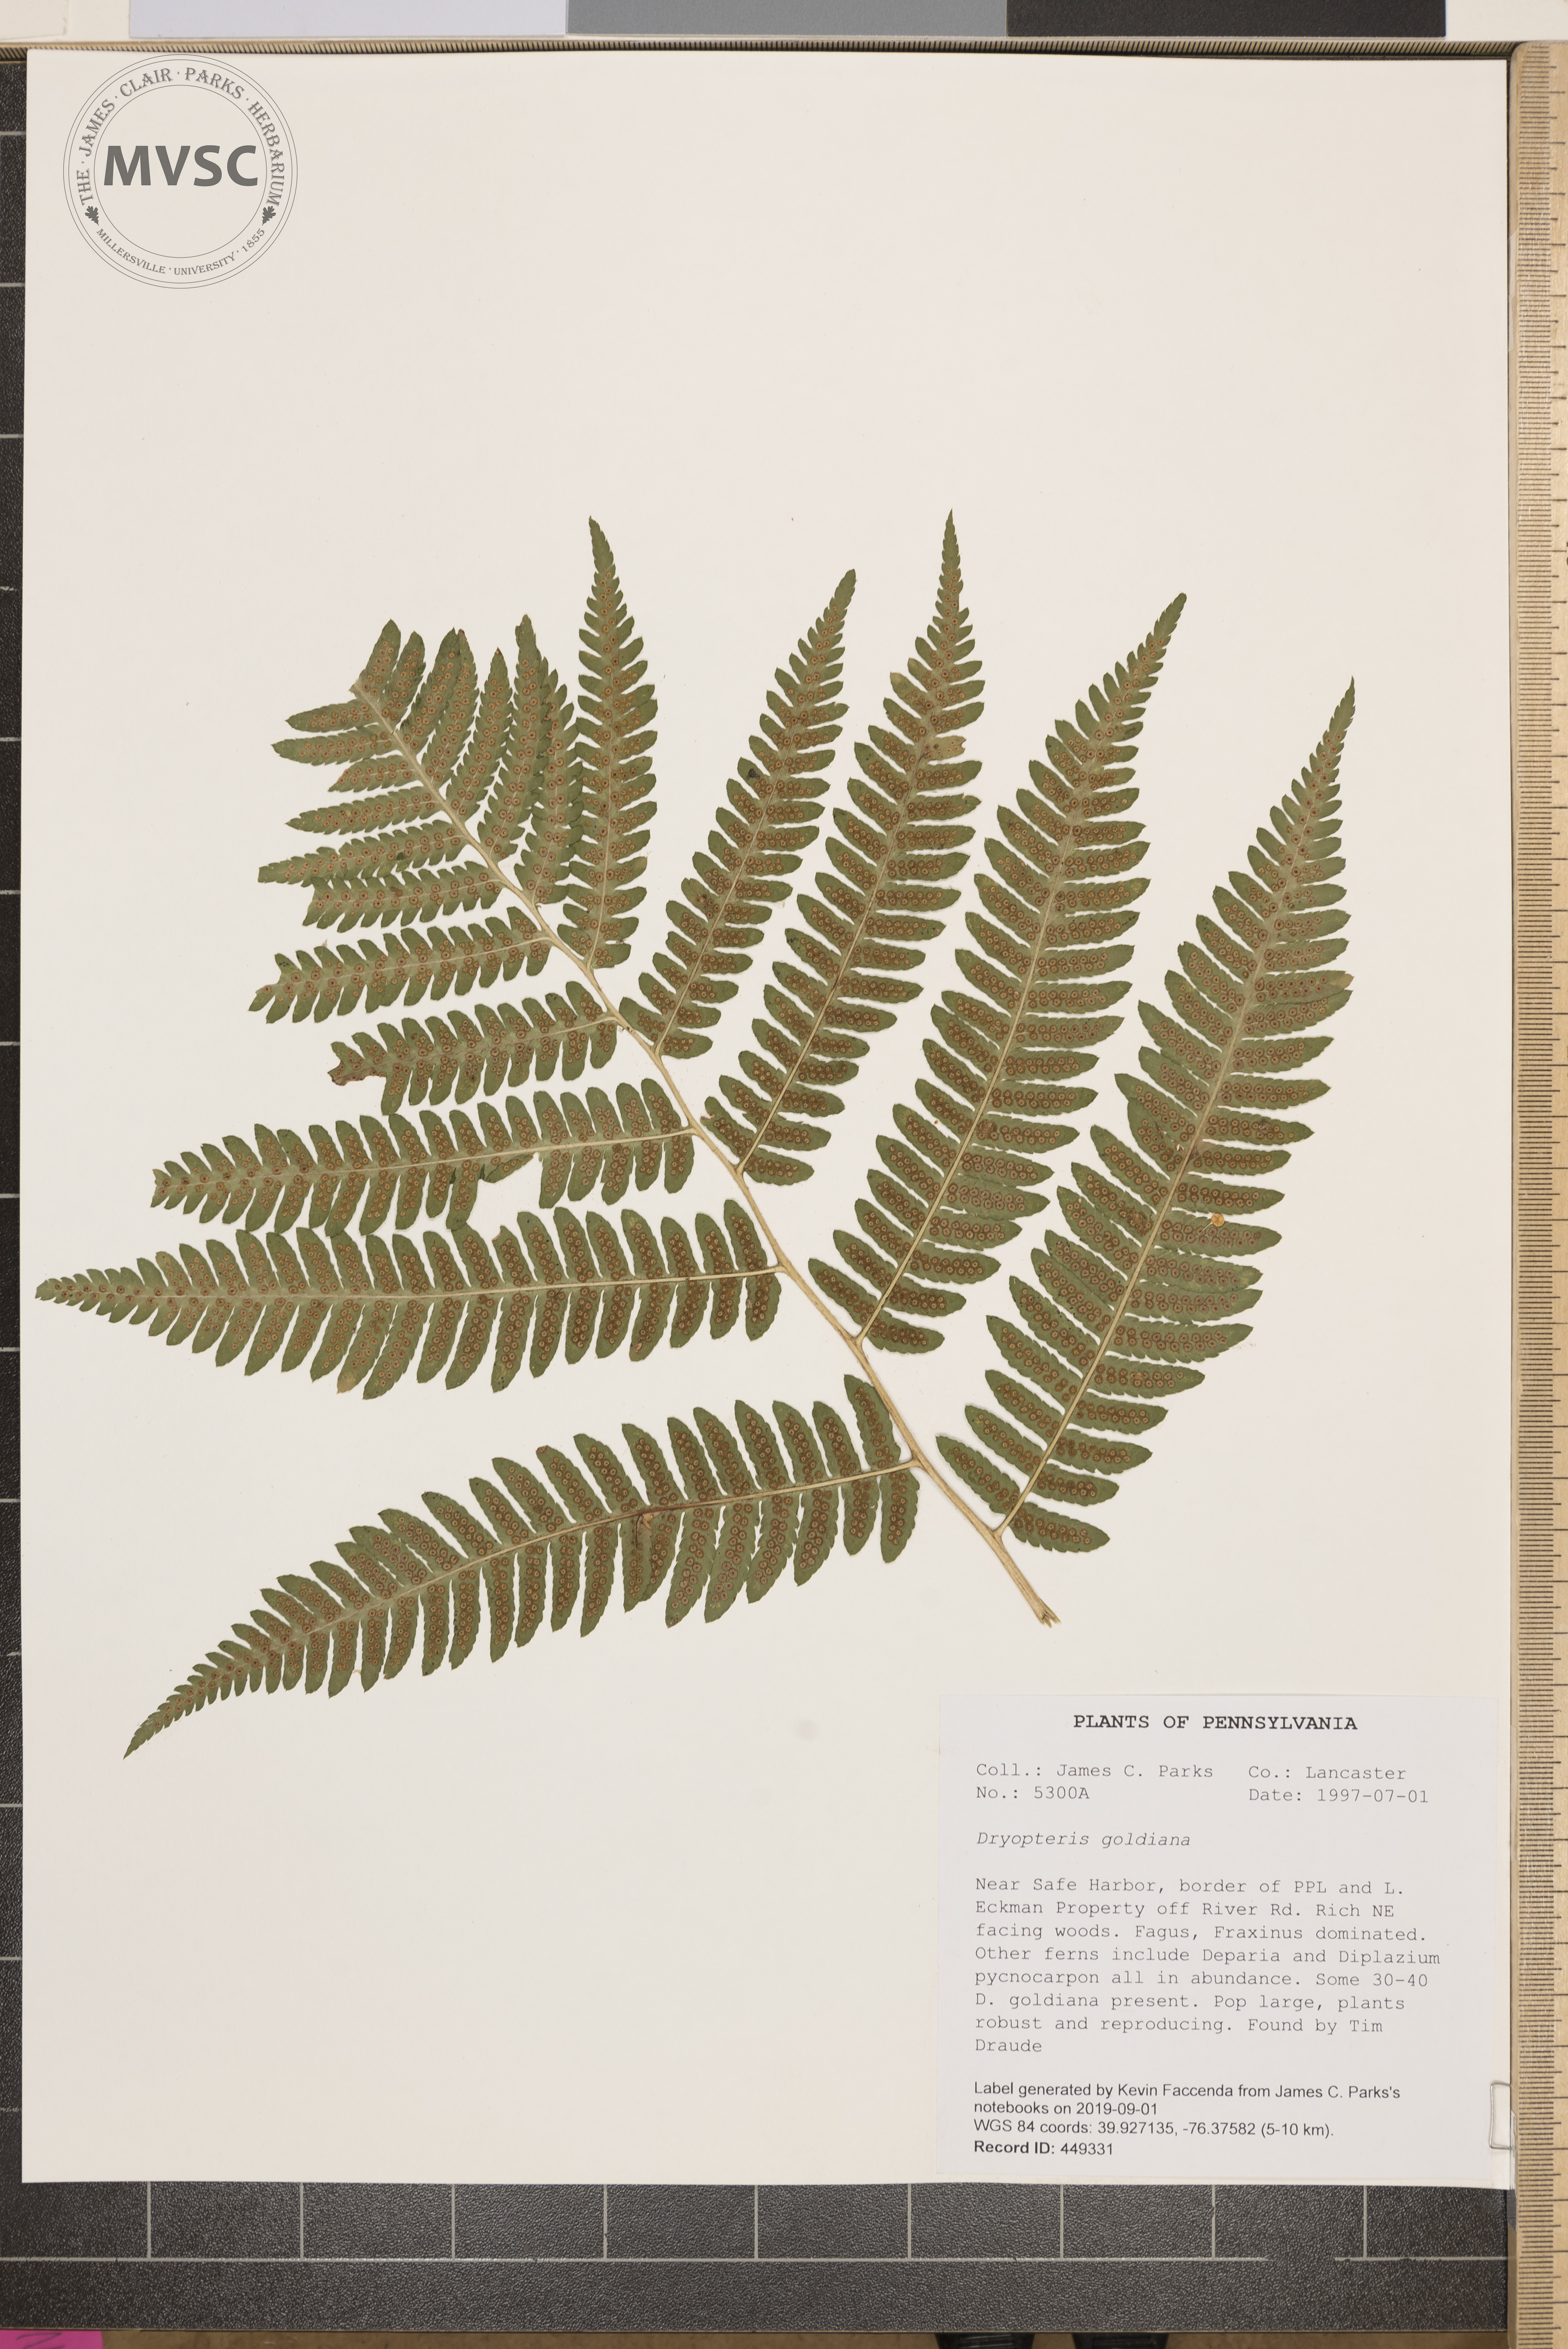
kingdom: Plantae
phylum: Tracheophyta
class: Polypodiopsida
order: Polypodiales
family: Dryopteridaceae
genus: Dryopteris
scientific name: Dryopteris goeldiana
